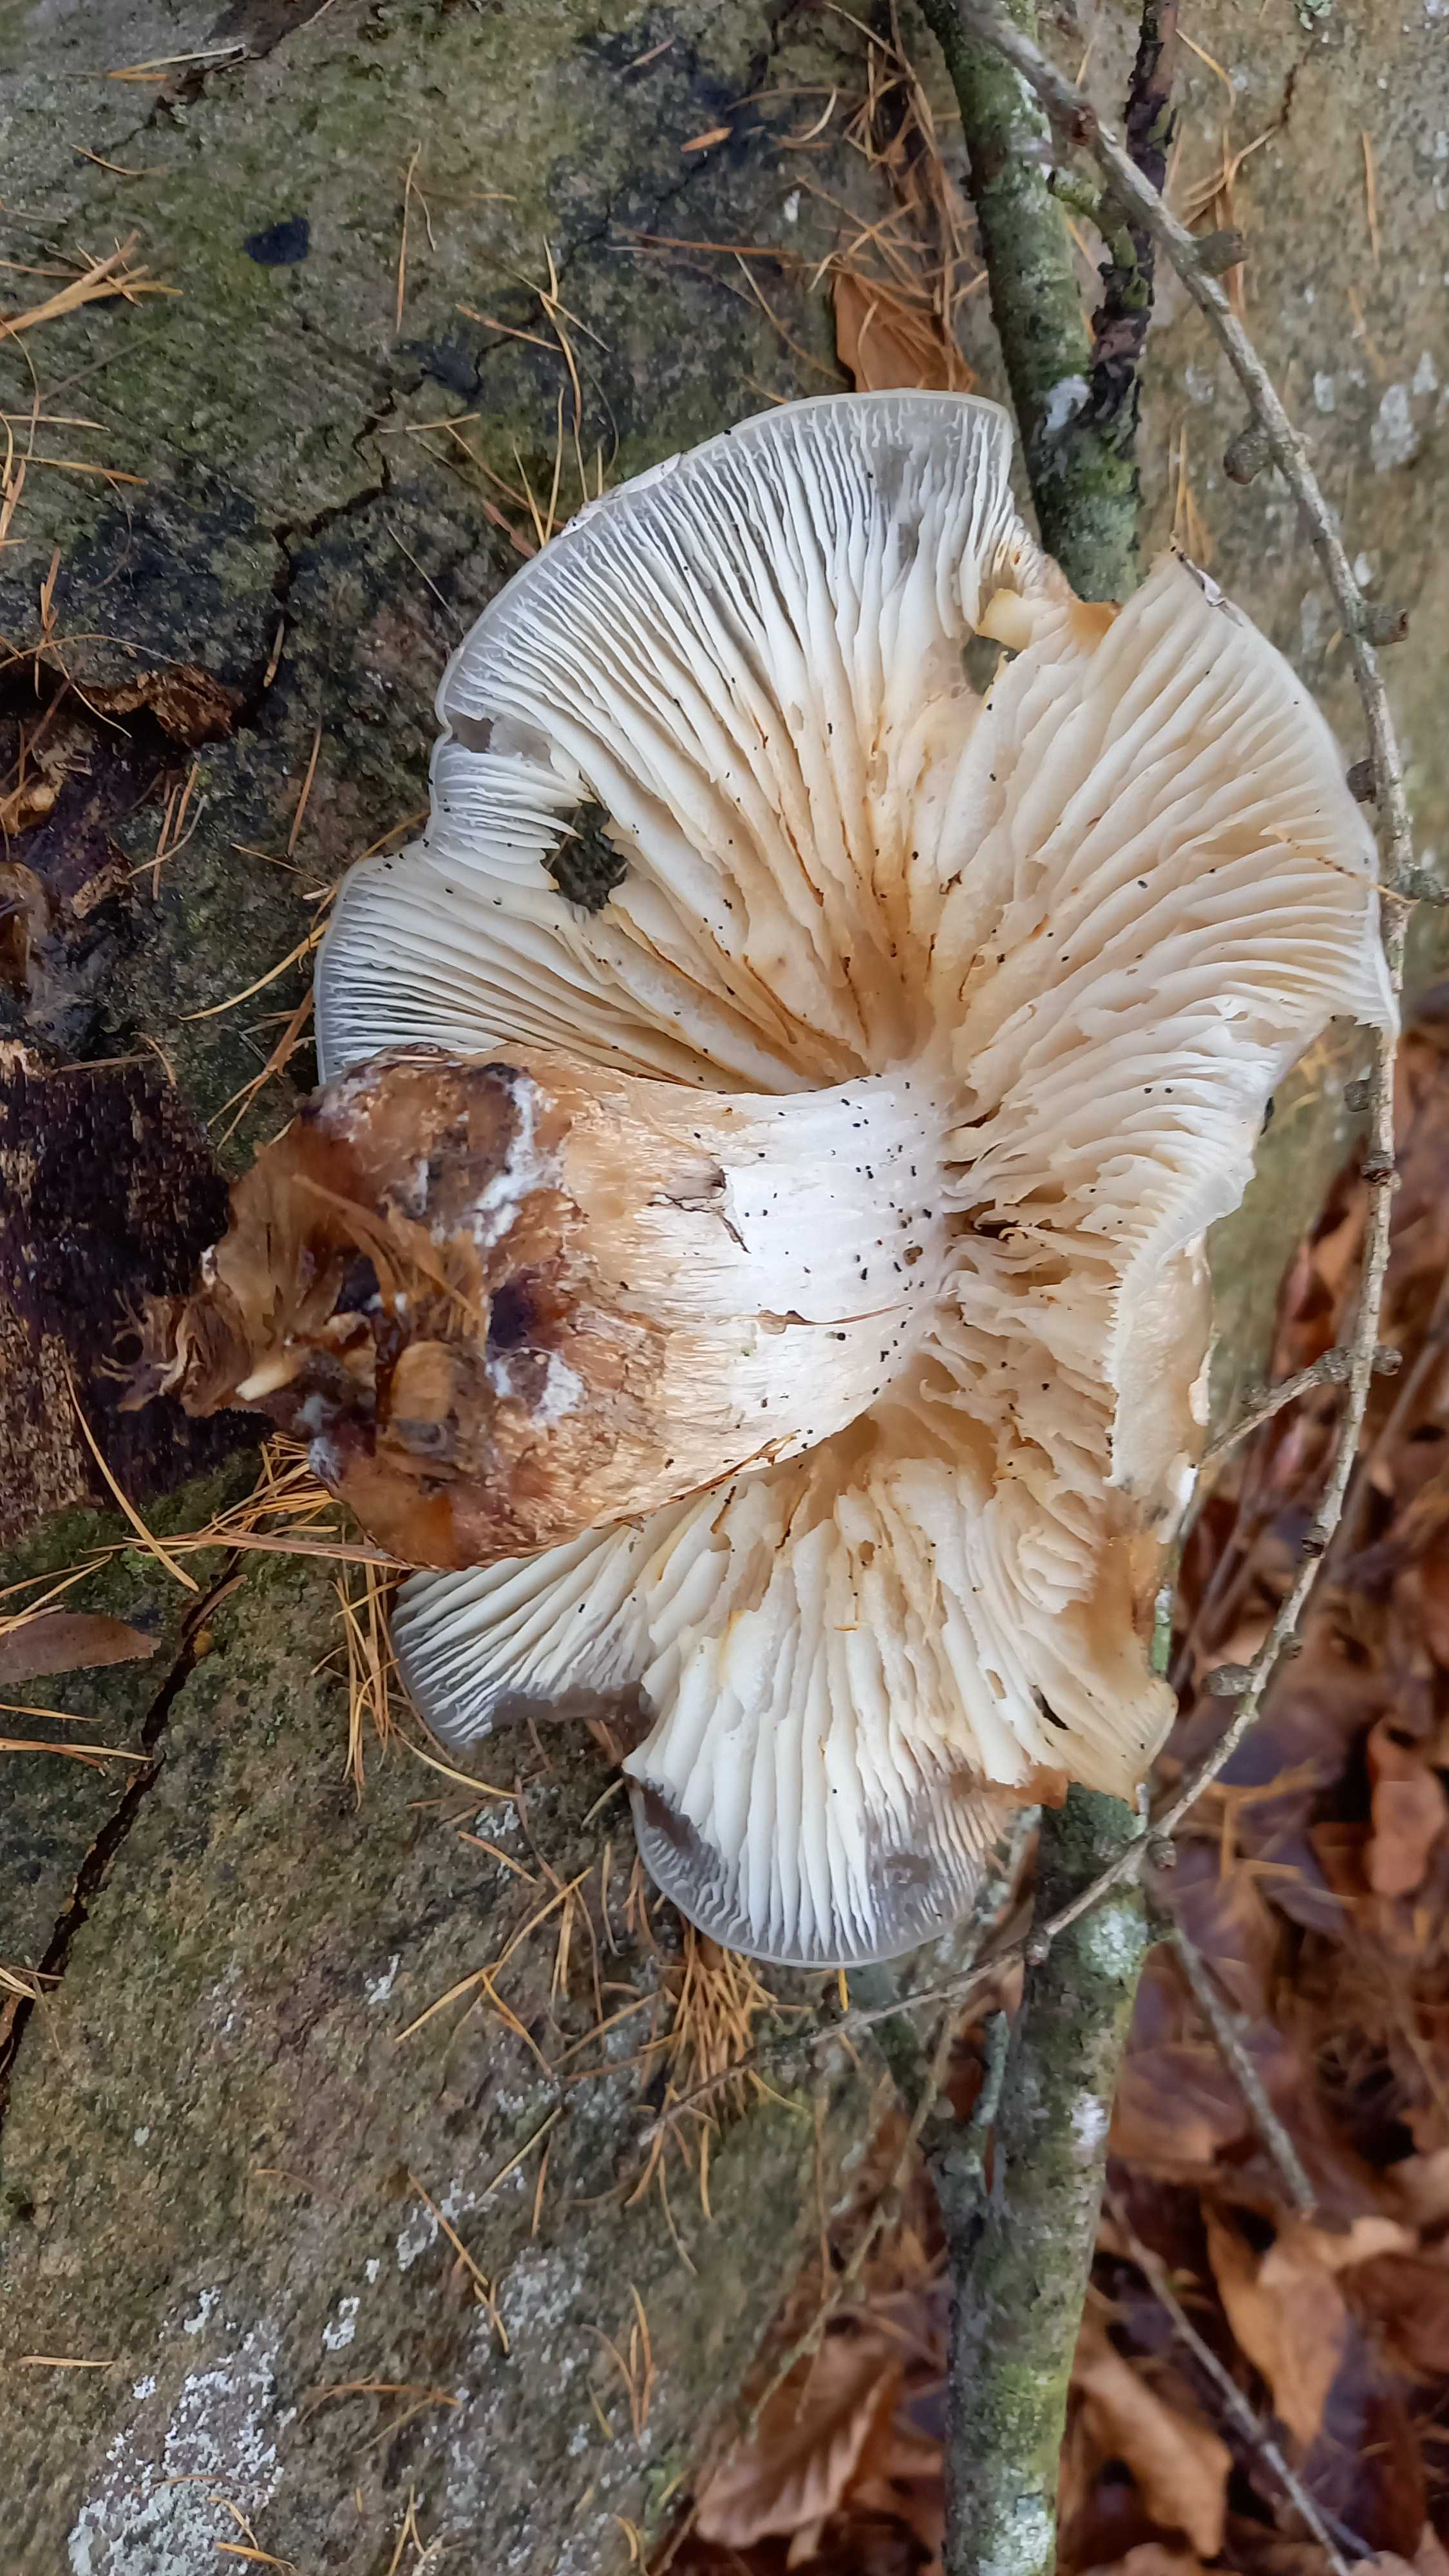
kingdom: Fungi
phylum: Basidiomycota
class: Agaricomycetes
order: Agaricales
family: Physalacriaceae
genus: Mucidula
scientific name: Mucidula mucida
